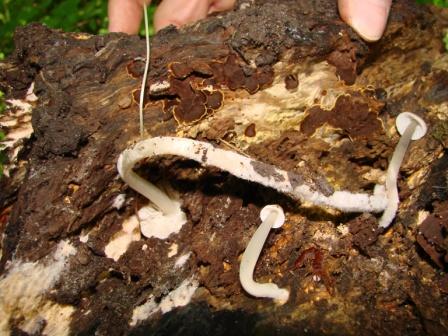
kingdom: Fungi
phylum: Basidiomycota
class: Agaricomycetes
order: Agaricales
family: Mycenaceae
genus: Mycena
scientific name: Mycena galericulata
